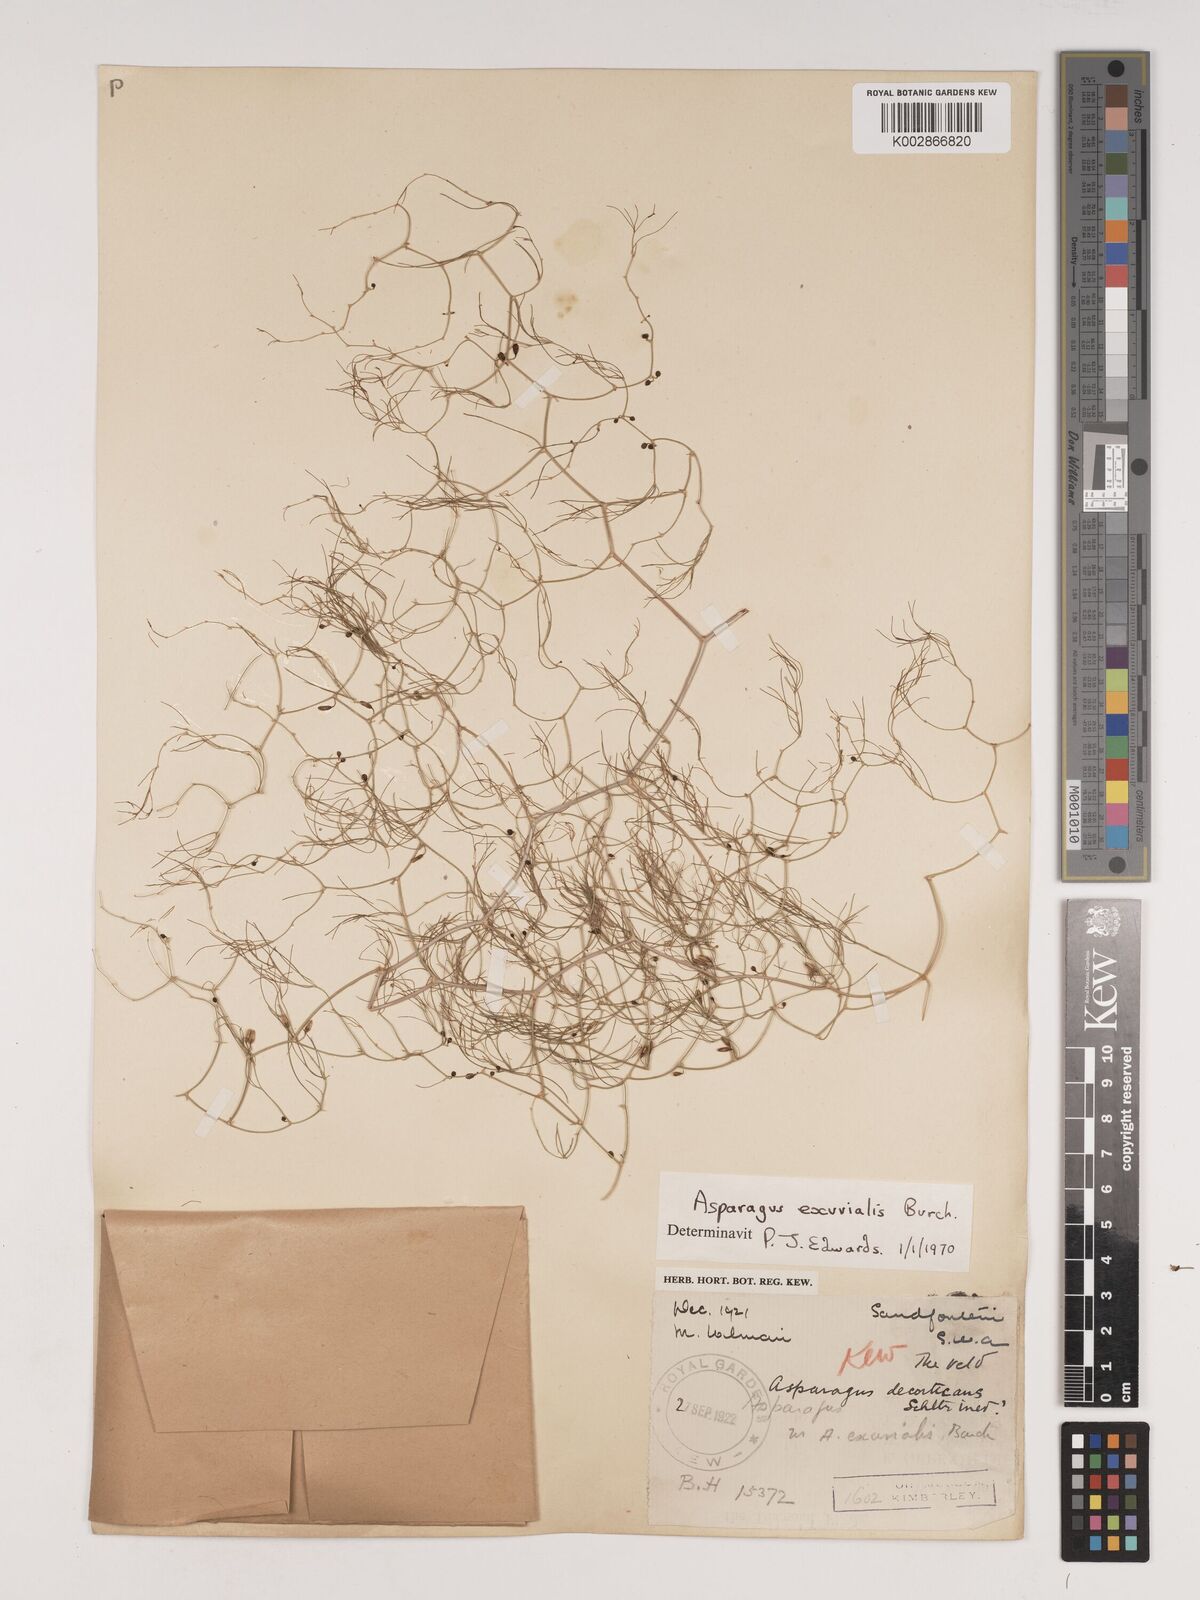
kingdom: Plantae
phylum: Tracheophyta
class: Liliopsida
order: Asparagales
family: Asparagaceae
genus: Asparagus
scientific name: Asparagus exuvialis
